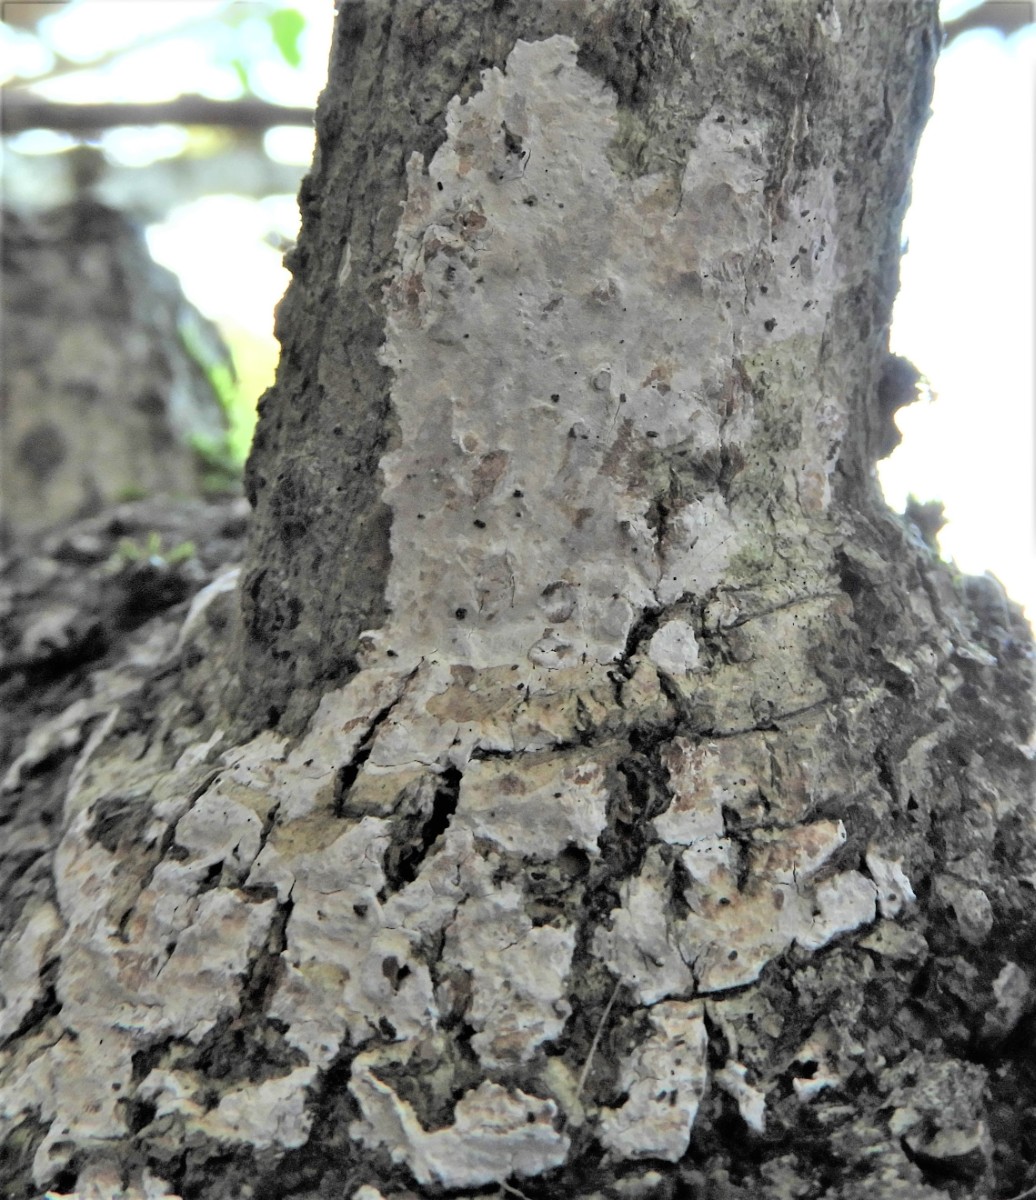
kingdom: Fungi
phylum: Basidiomycota
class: Agaricomycetes
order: Agaricales
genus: Dendrothele
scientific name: Dendrothele acerina
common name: navr-kalkplet
